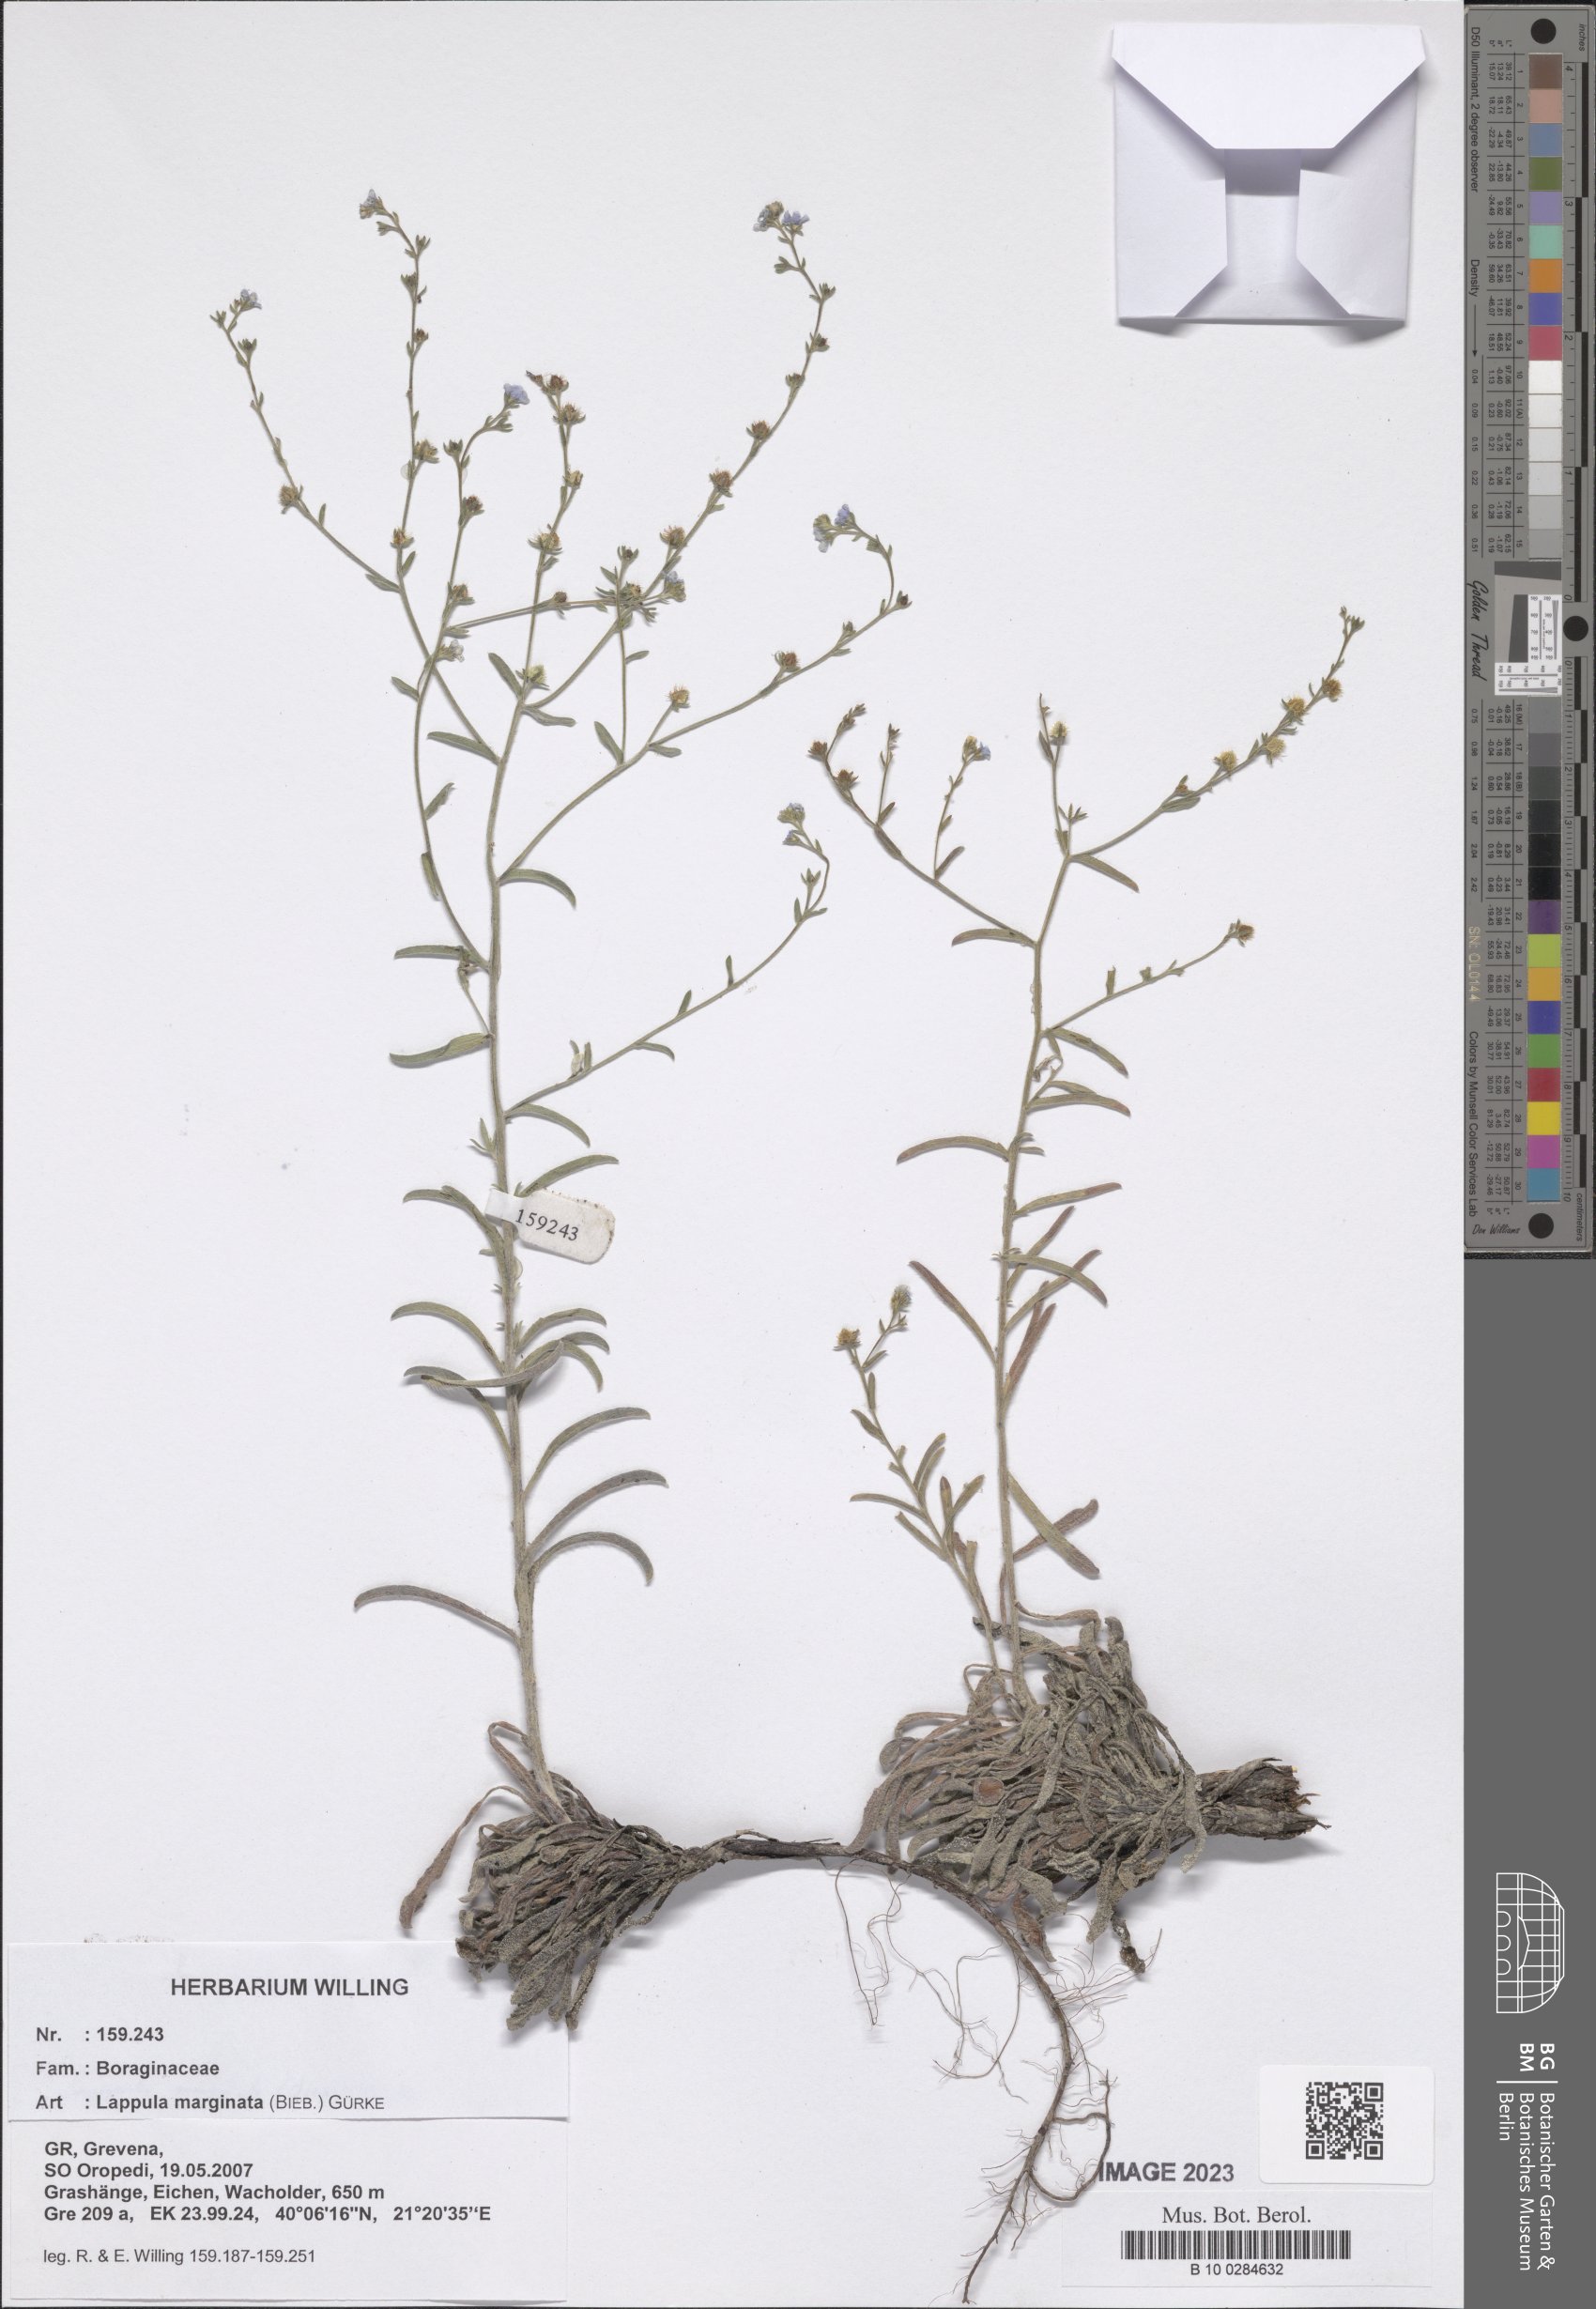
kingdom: Plantae
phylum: Tracheophyta
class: Magnoliopsida
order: Boraginales
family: Boraginaceae
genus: Lappula
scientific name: Lappula marginata
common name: Margined stickseed
